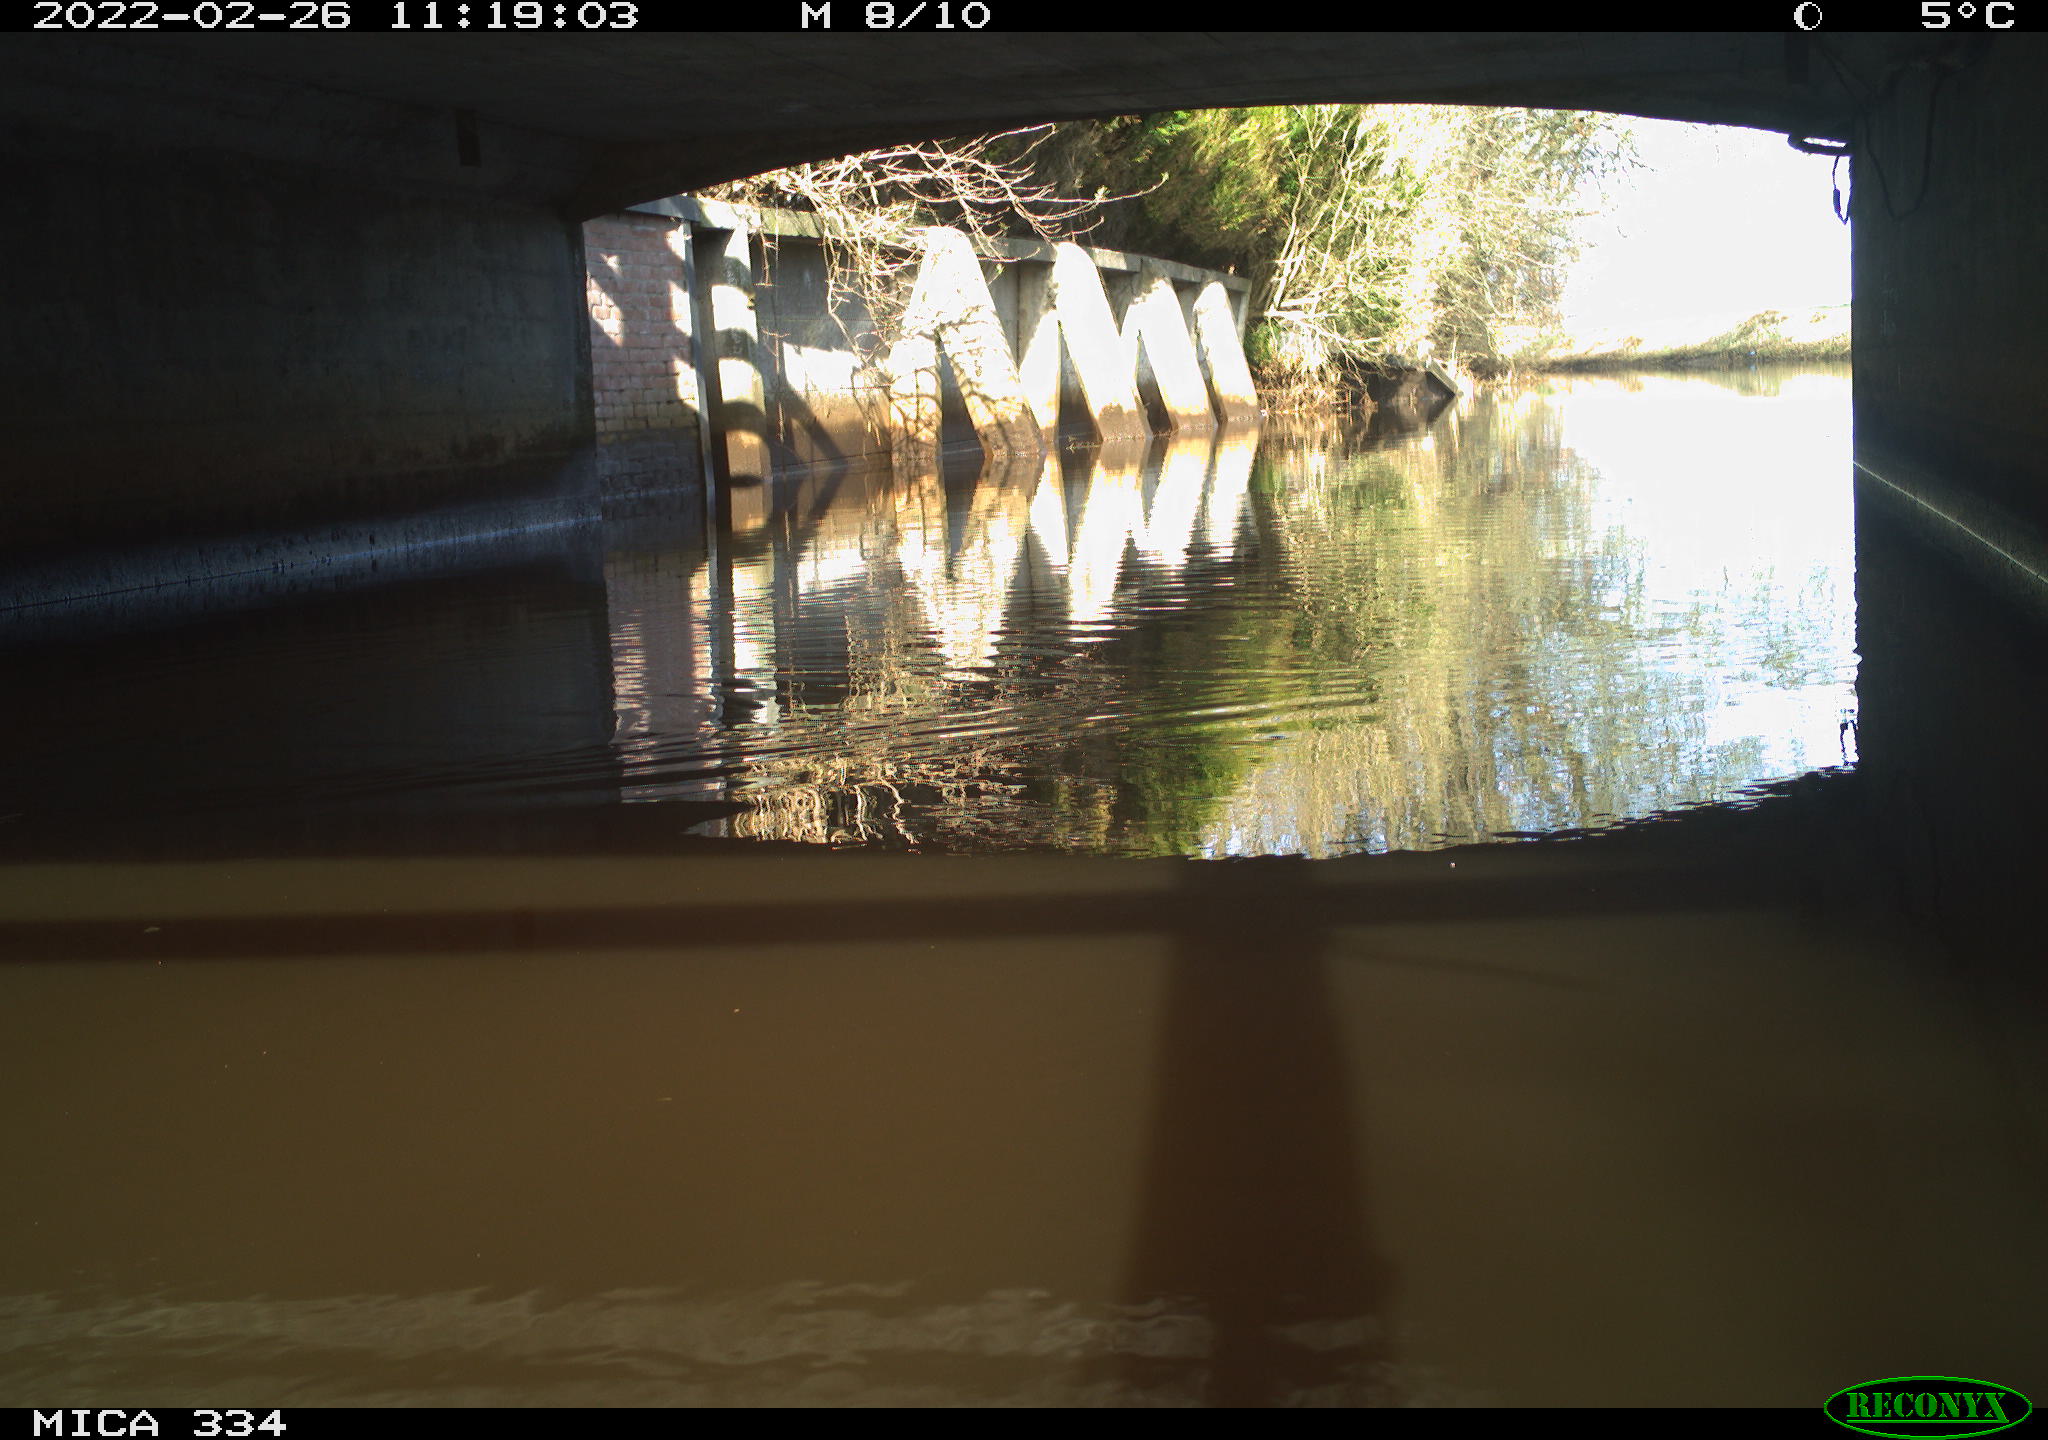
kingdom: Animalia
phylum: Chordata
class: Aves
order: Gruiformes
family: Rallidae
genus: Gallinula
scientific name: Gallinula chloropus
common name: Common moorhen
